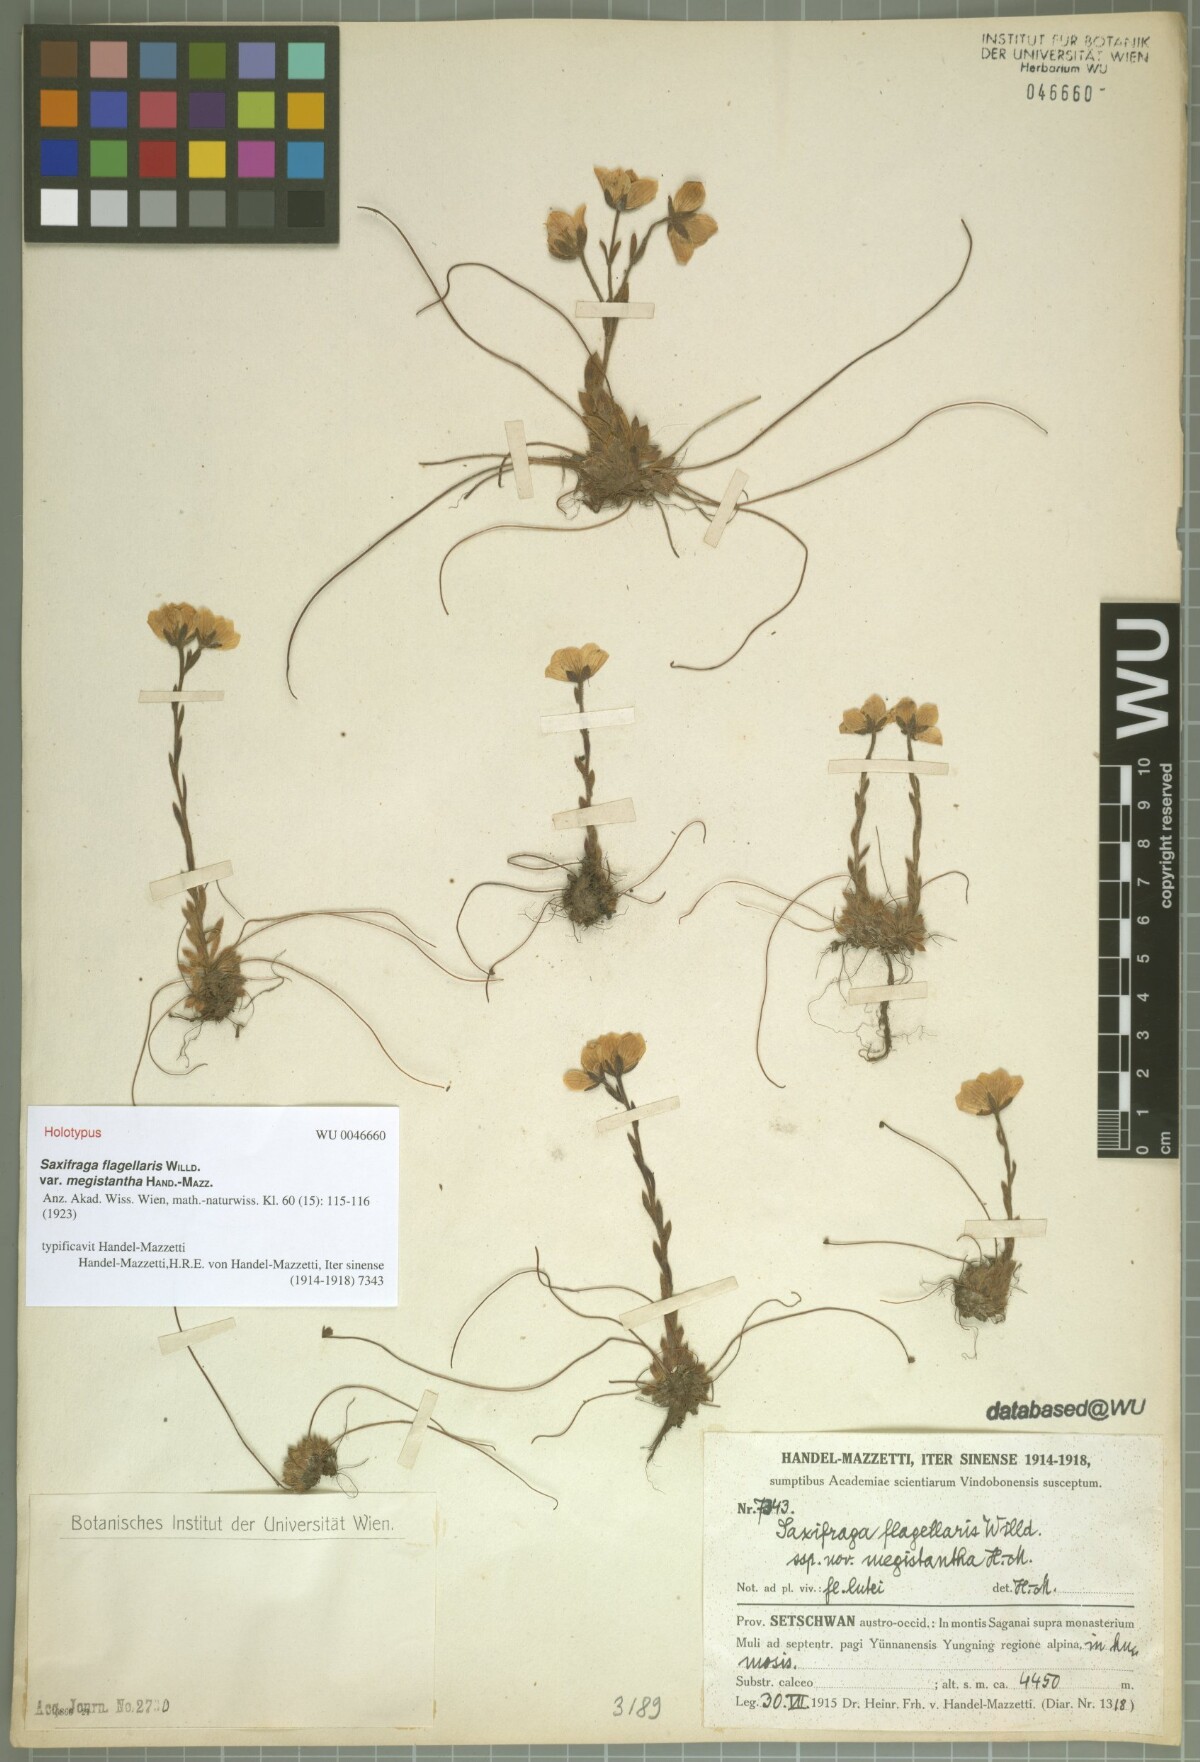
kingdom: Plantae
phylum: Tracheophyta
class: Magnoliopsida
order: Saxifragales
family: Saxifragaceae
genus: Saxifraga
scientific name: Saxifraga mucronulata
